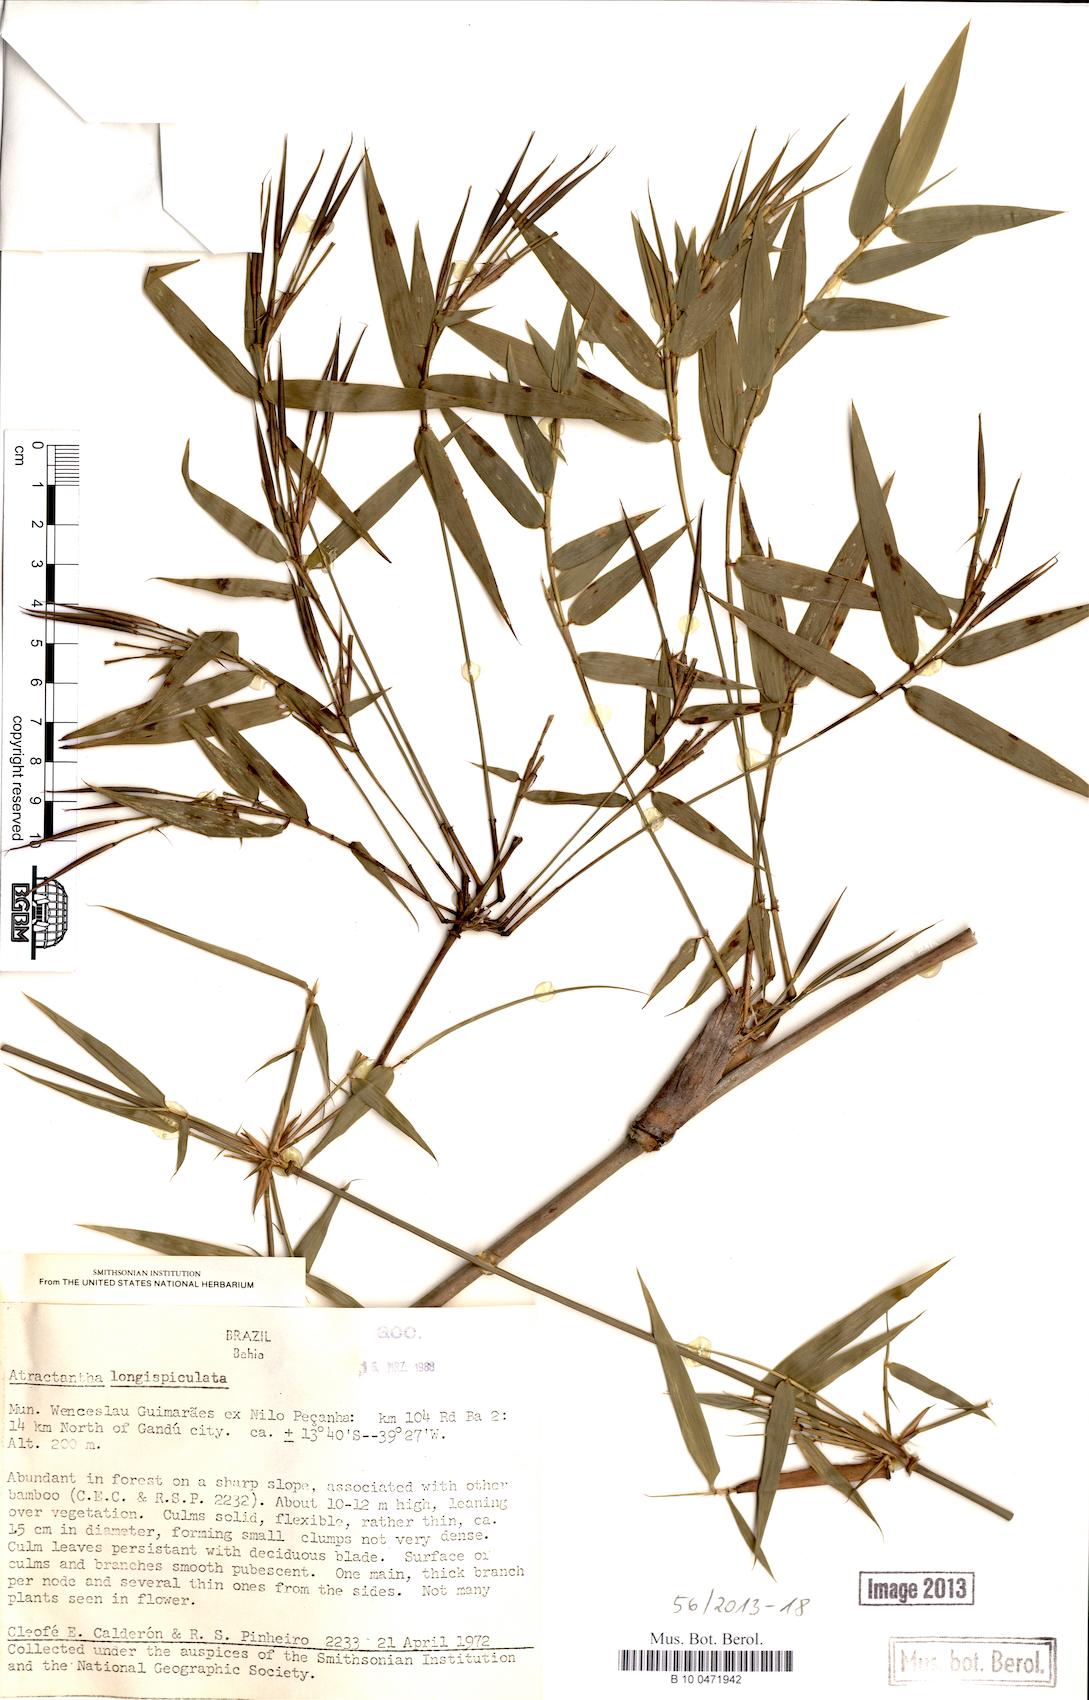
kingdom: Plantae
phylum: Tracheophyta
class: Liliopsida
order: Poales
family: Poaceae
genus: Atractantha
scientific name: Atractantha
